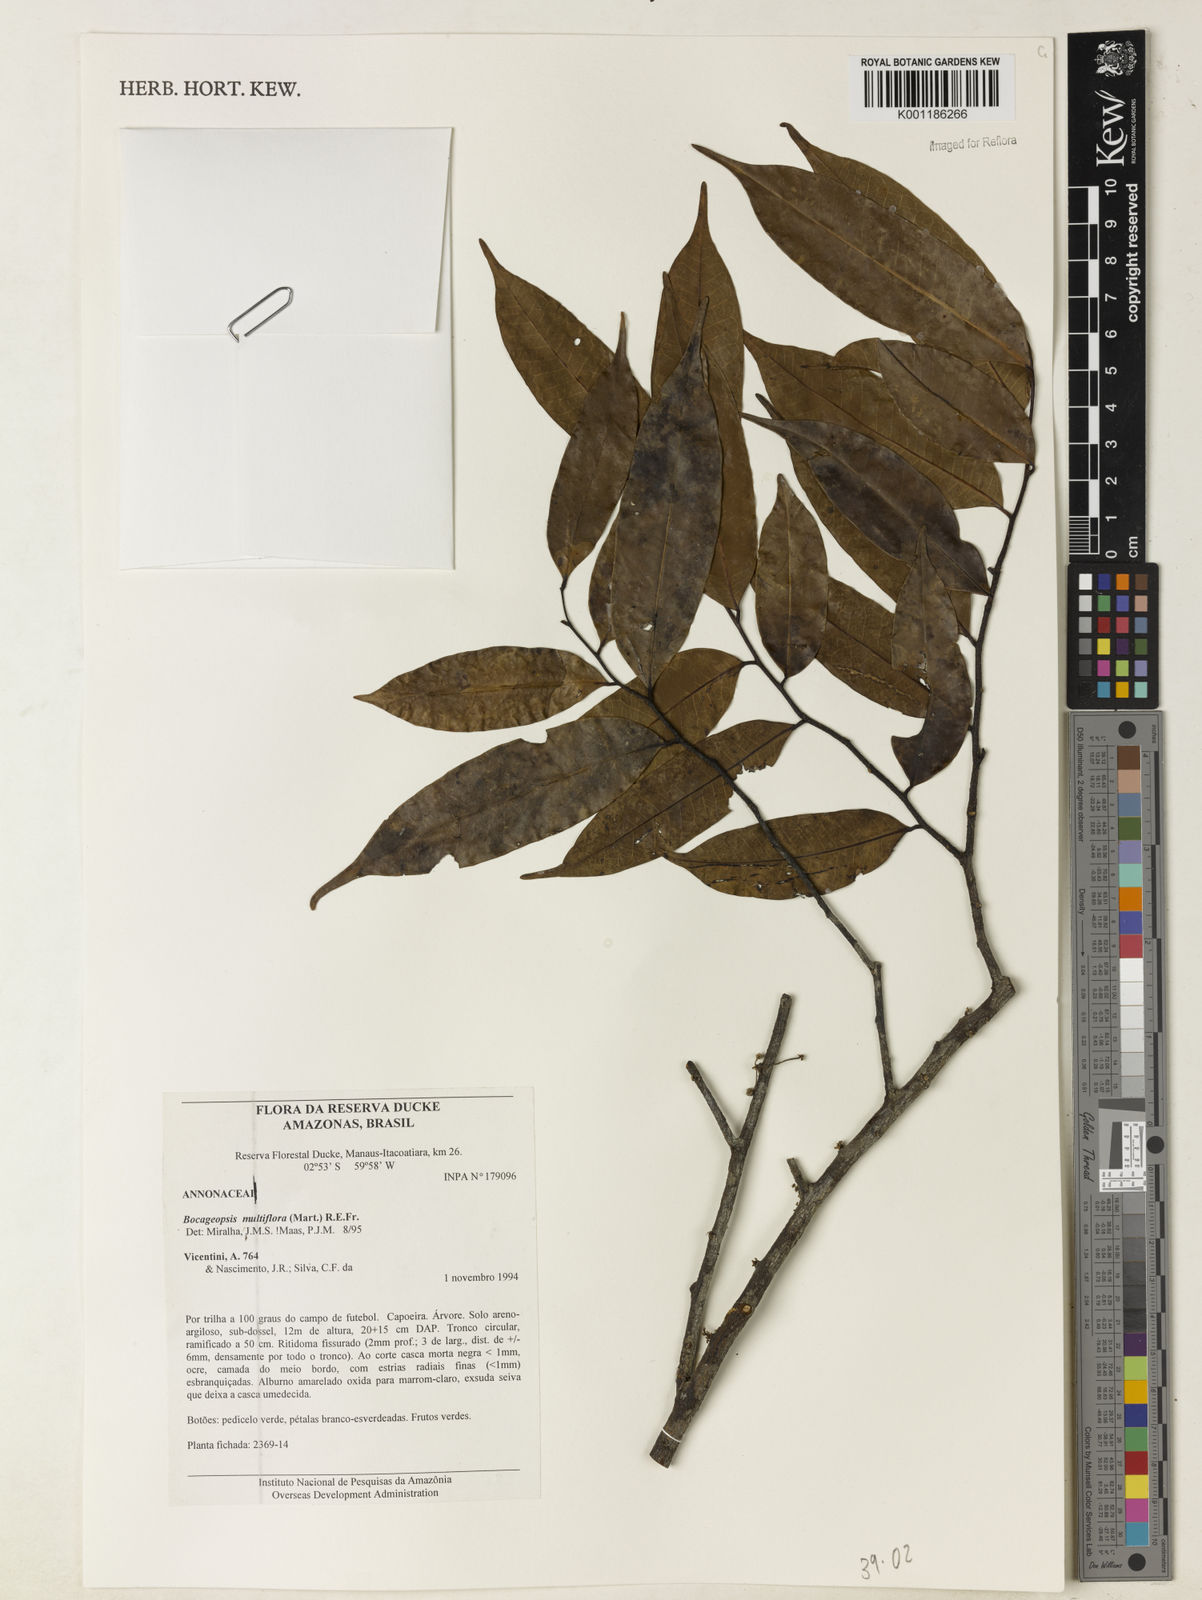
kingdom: Plantae
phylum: Tracheophyta
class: Magnoliopsida
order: Magnoliales
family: Annonaceae
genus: Bocageopsis
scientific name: Bocageopsis multiflora
